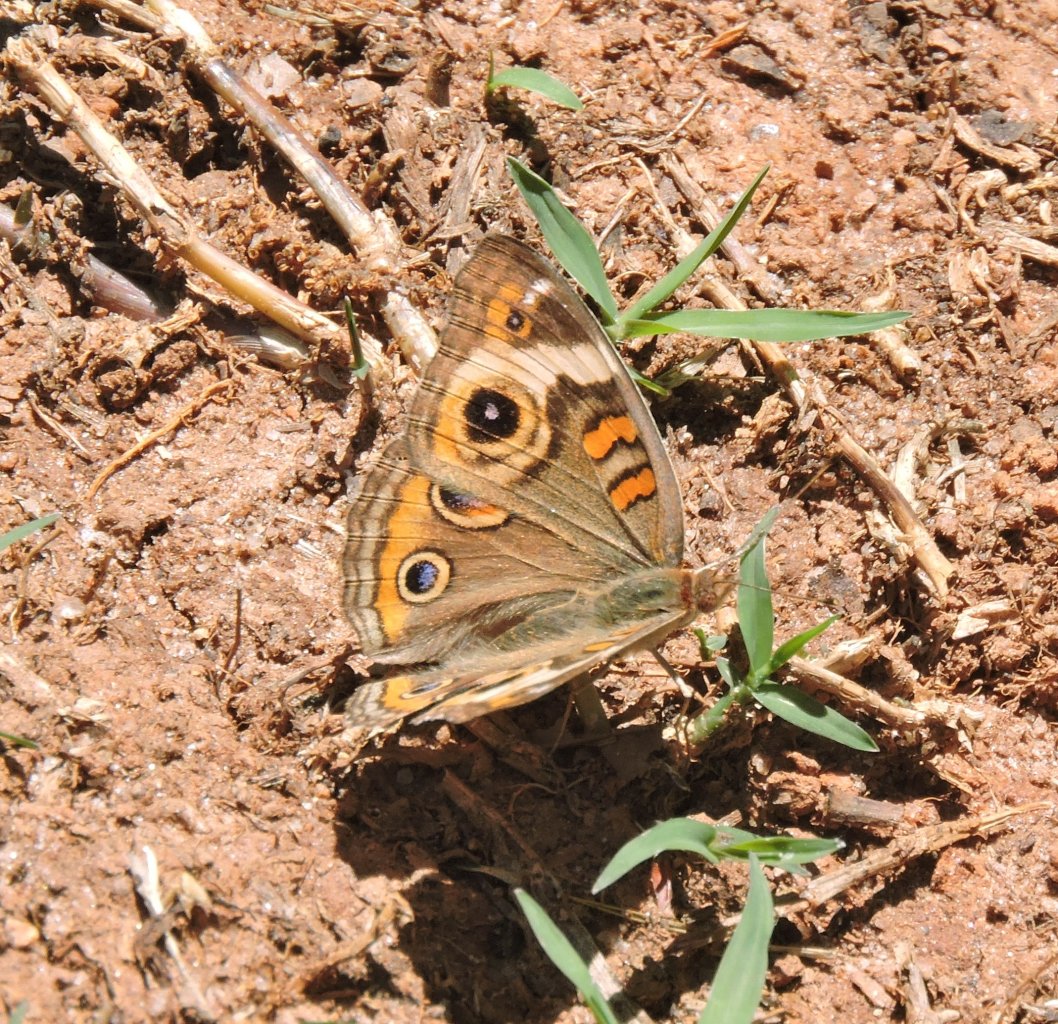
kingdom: Animalia
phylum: Arthropoda
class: Insecta
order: Lepidoptera
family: Nymphalidae
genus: Junonia
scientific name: Junonia coenia
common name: Common Buckeye
